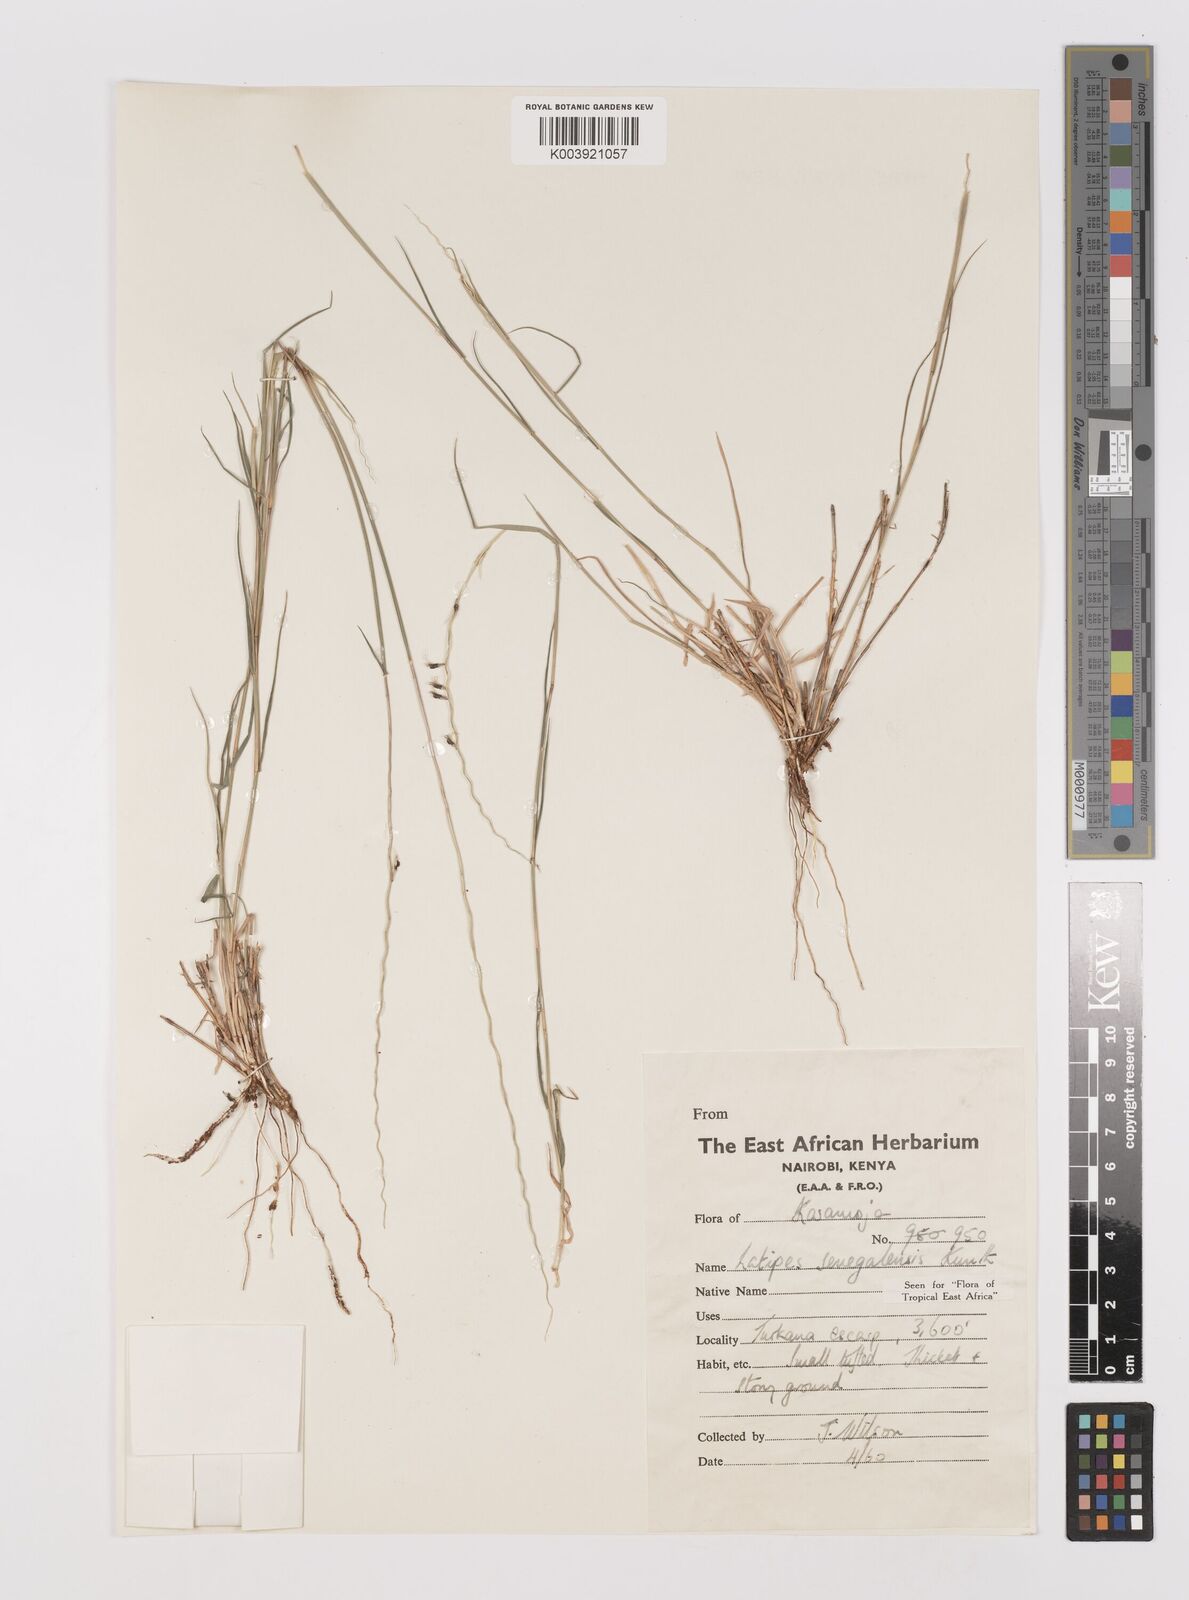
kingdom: Plantae
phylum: Tracheophyta
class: Liliopsida
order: Poales
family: Poaceae
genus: Leptothrium
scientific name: Leptothrium senegalense
